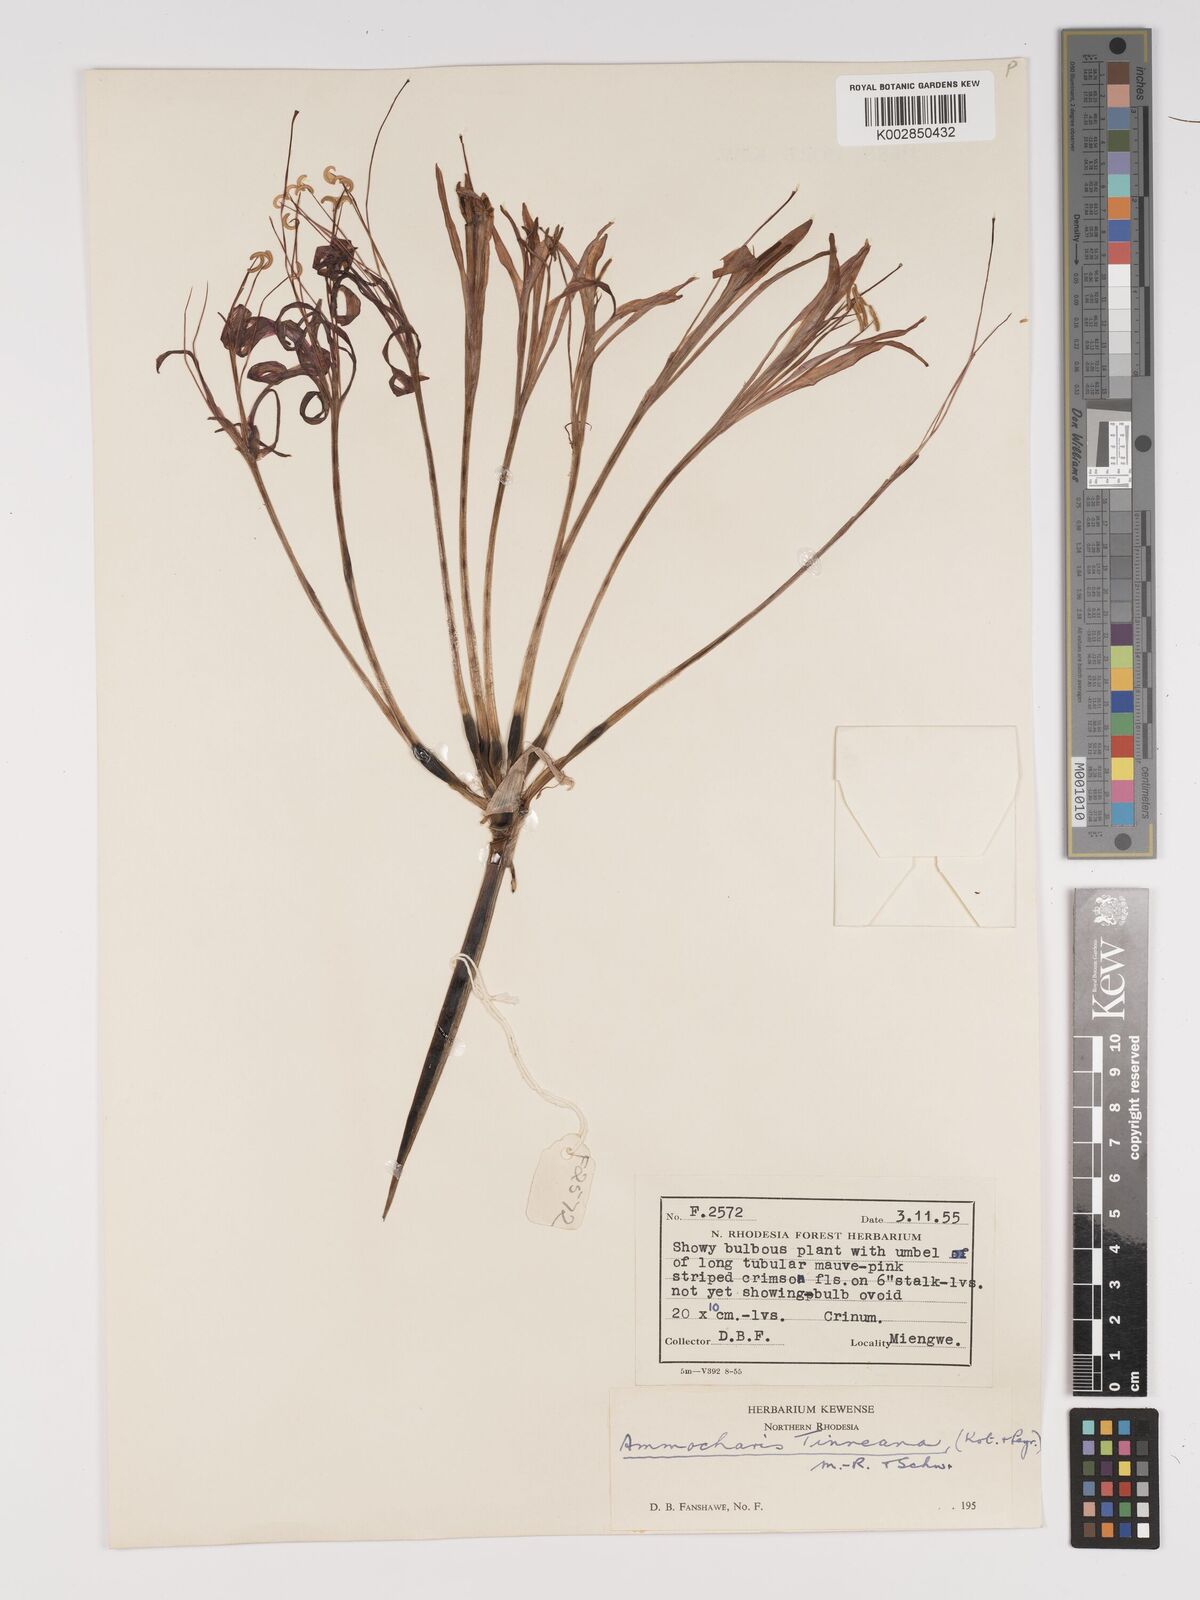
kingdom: Plantae
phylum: Tracheophyta
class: Liliopsida
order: Asparagales
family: Amaryllidaceae
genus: Ammocharis
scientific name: Ammocharis tinneana
